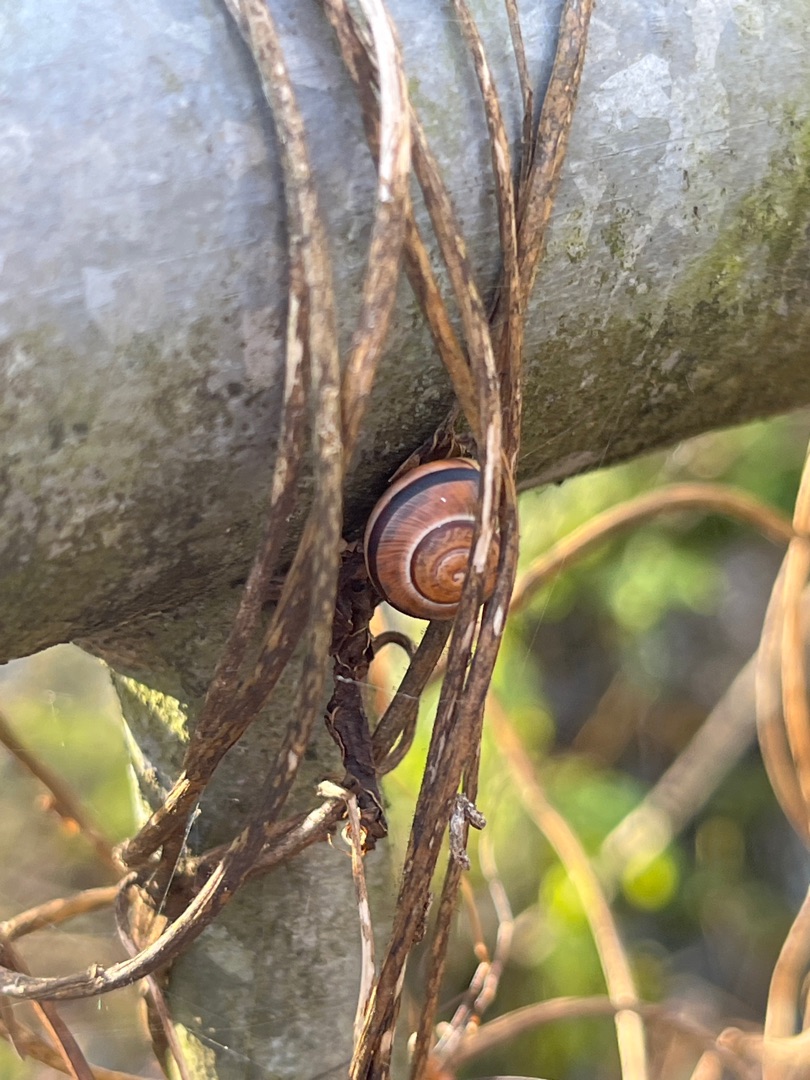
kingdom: Animalia
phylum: Mollusca
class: Gastropoda
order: Stylommatophora
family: Helicidae
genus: Cepaea
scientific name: Cepaea hortensis
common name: Havesnegl
